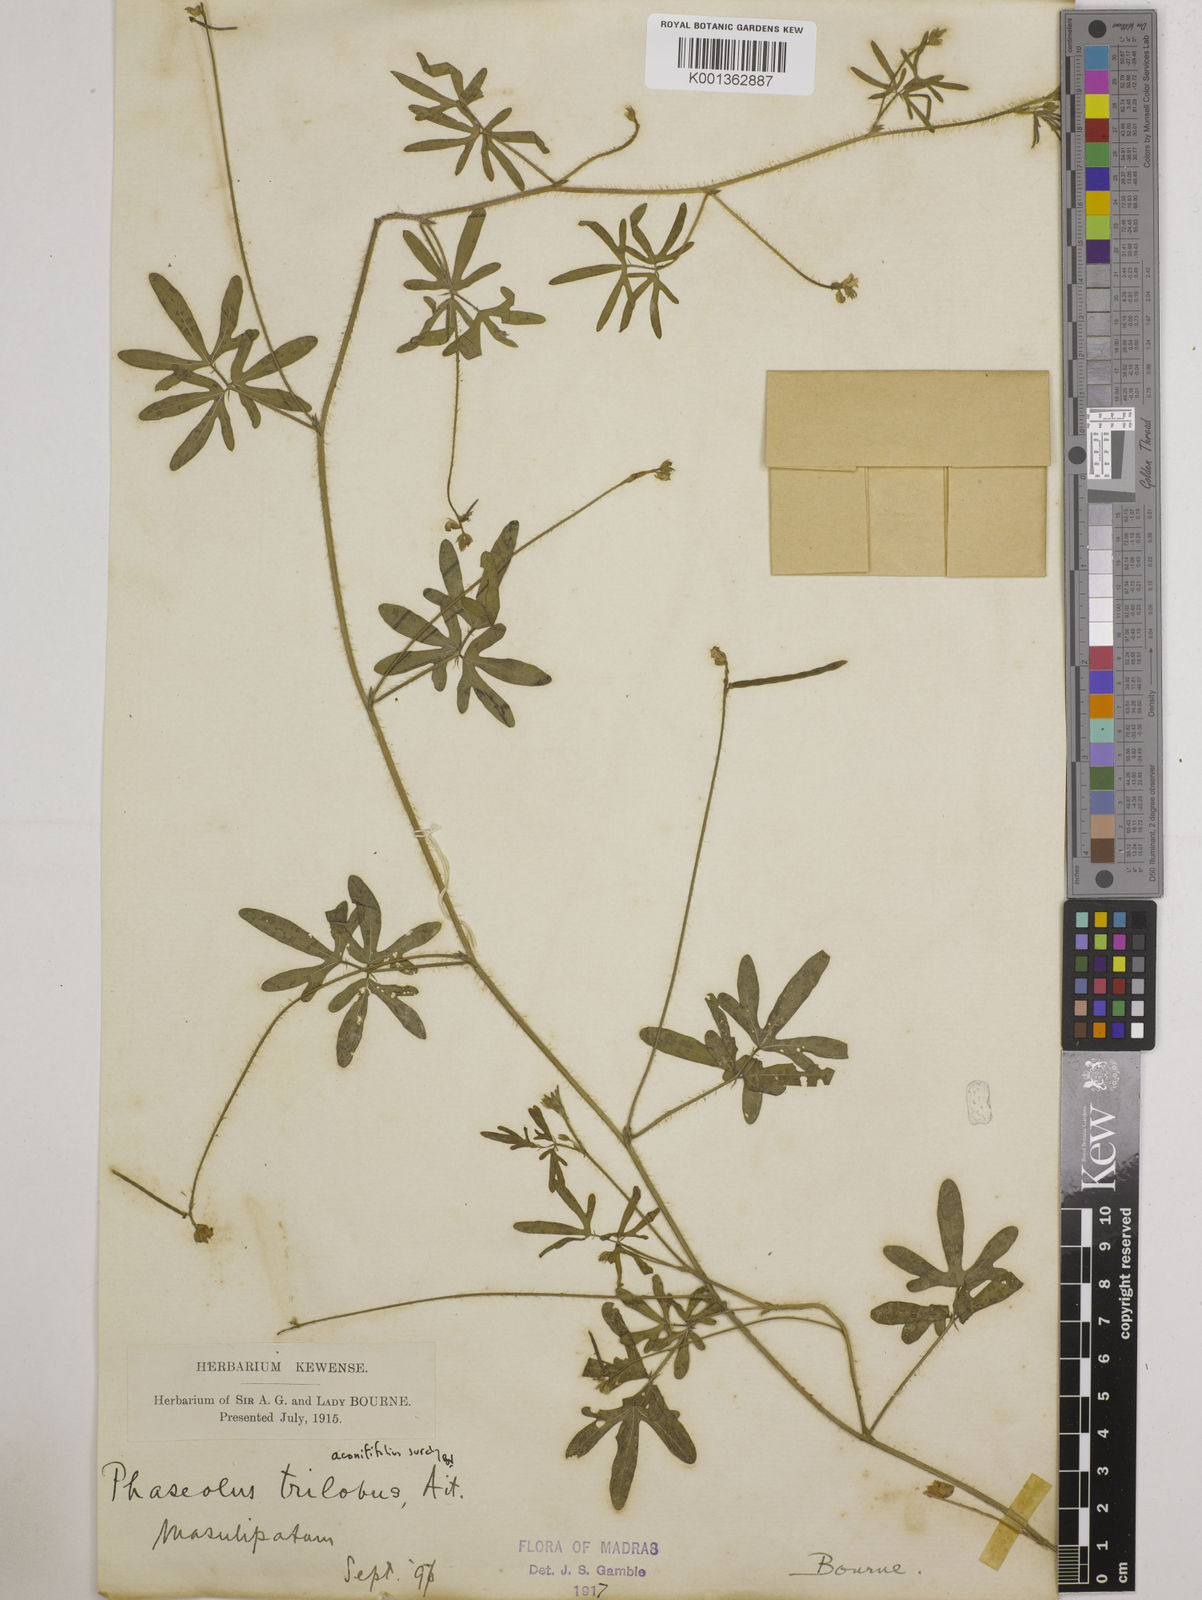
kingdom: Plantae
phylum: Tracheophyta
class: Magnoliopsida
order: Fabales
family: Fabaceae
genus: Vigna
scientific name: Vigna aconitifolia
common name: Dew bean
